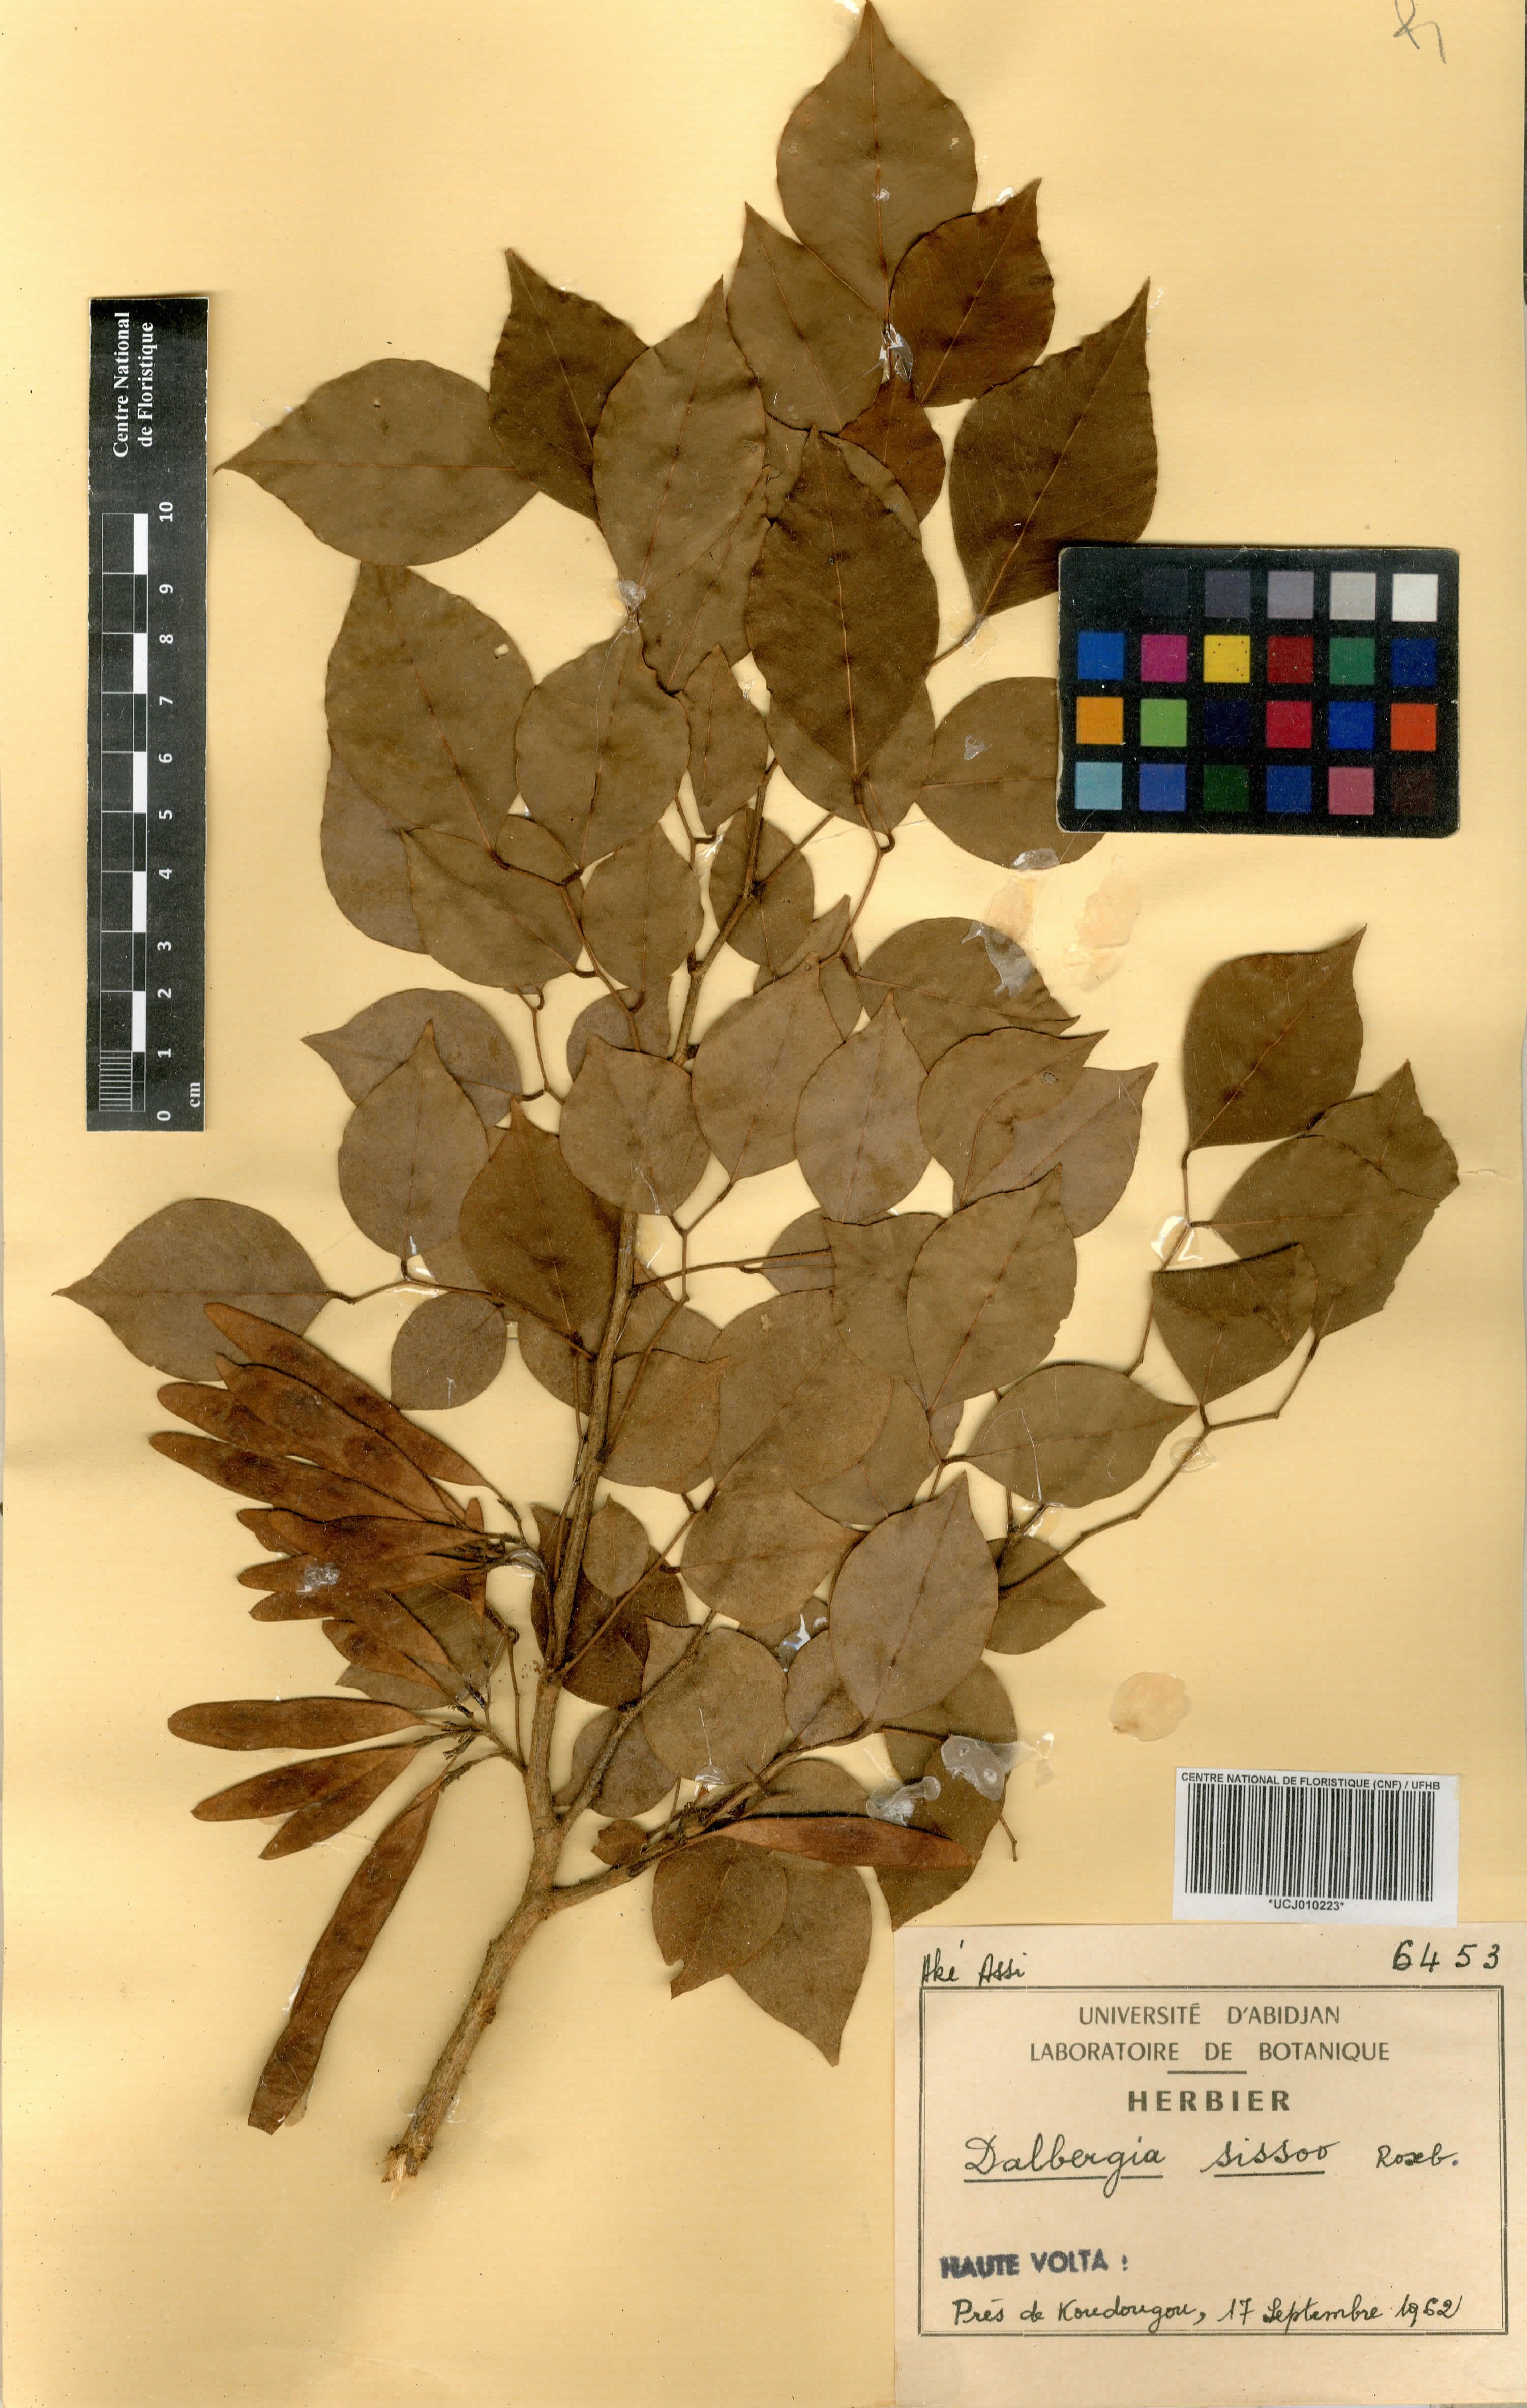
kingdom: Plantae
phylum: Tracheophyta
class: Magnoliopsida
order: Fabales
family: Fabaceae
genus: Dalbergia
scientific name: Dalbergia sissoo
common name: Indian rosewood
